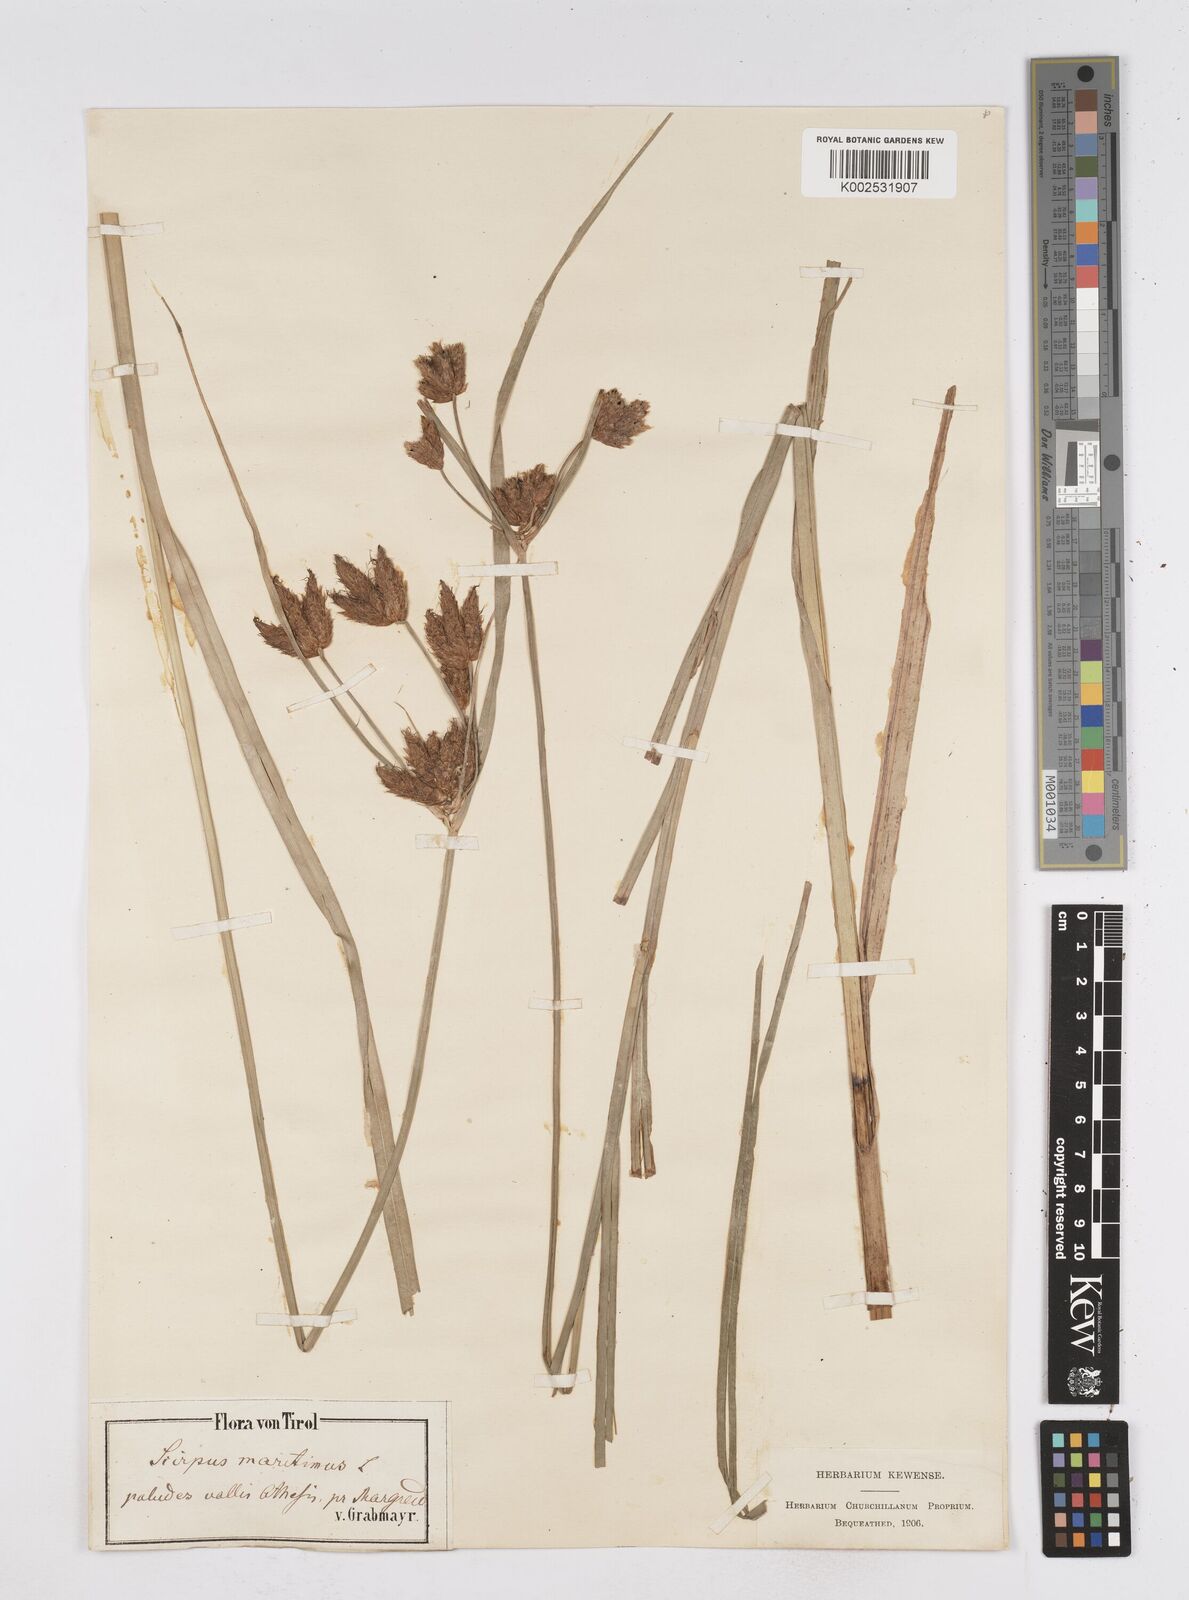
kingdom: Plantae
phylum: Tracheophyta
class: Liliopsida
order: Poales
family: Cyperaceae
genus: Bolboschoenus
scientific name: Bolboschoenus maritimus
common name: Sea club-rush
